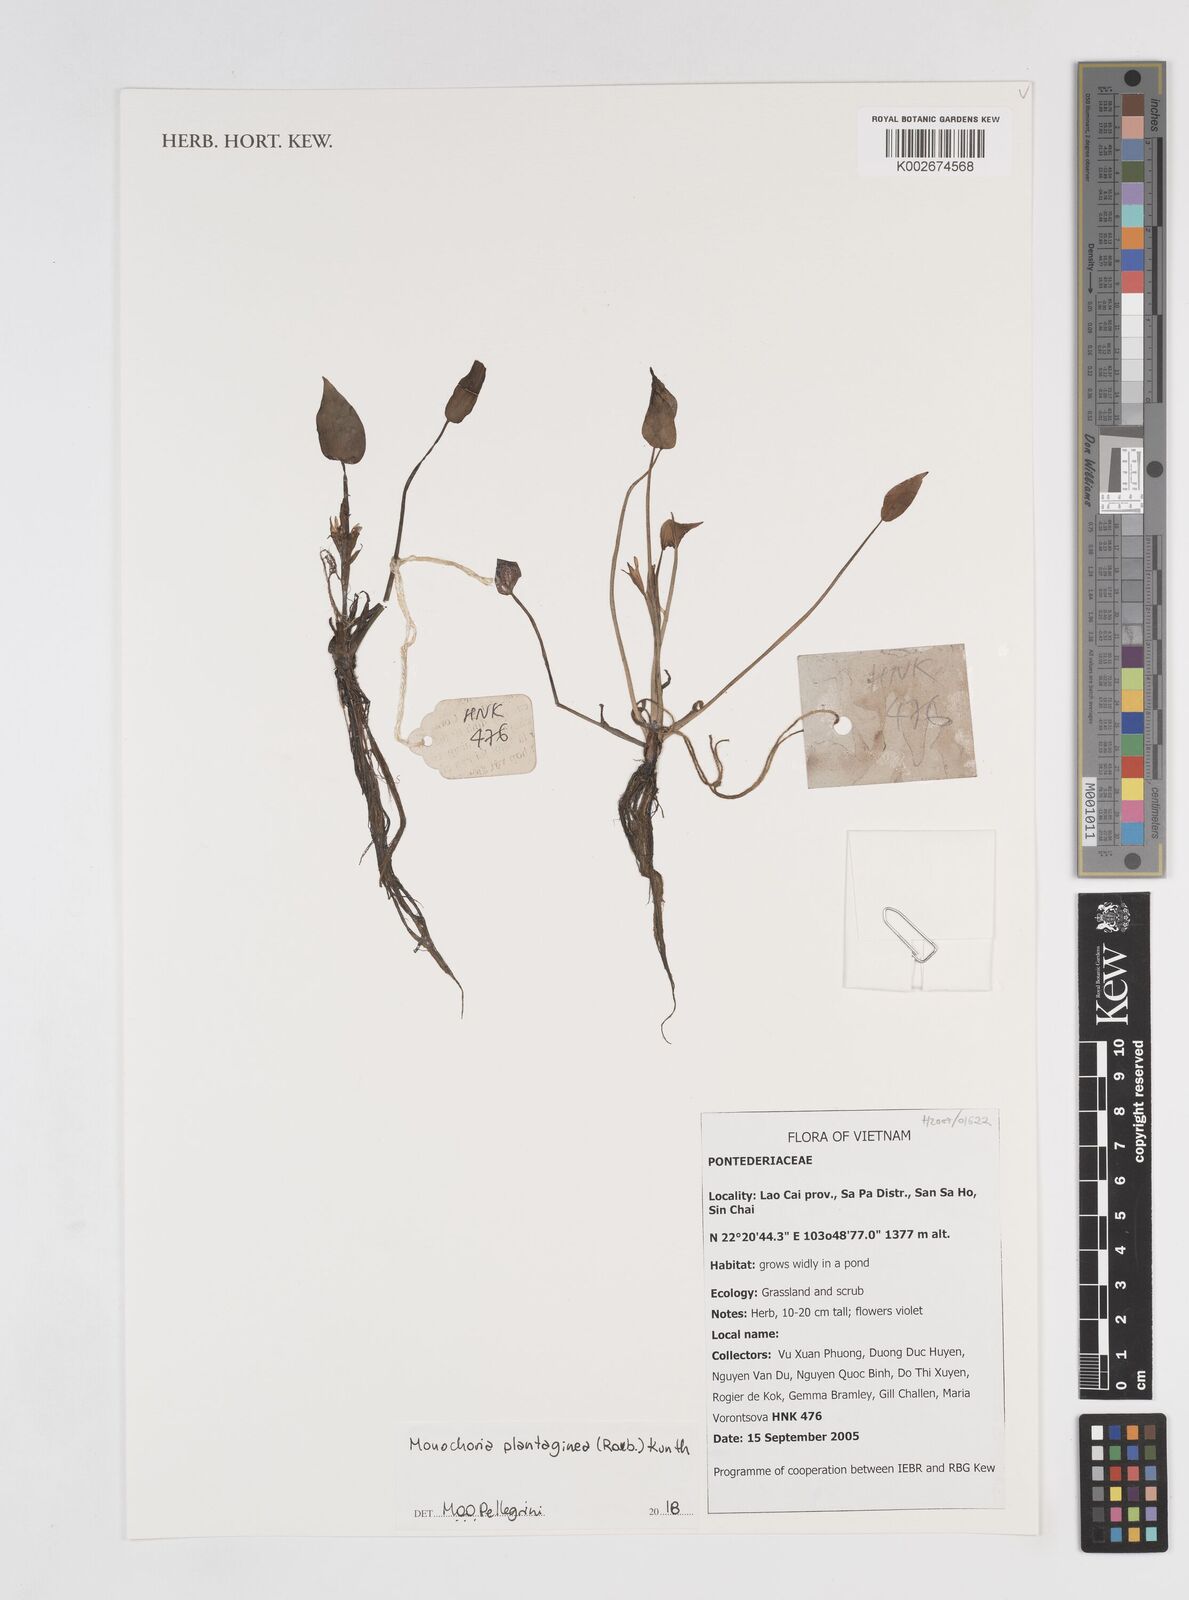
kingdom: Plantae
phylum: Tracheophyta
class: Liliopsida
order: Commelinales
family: Pontederiaceae
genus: Pontederia
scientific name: Pontederia plantaginea
